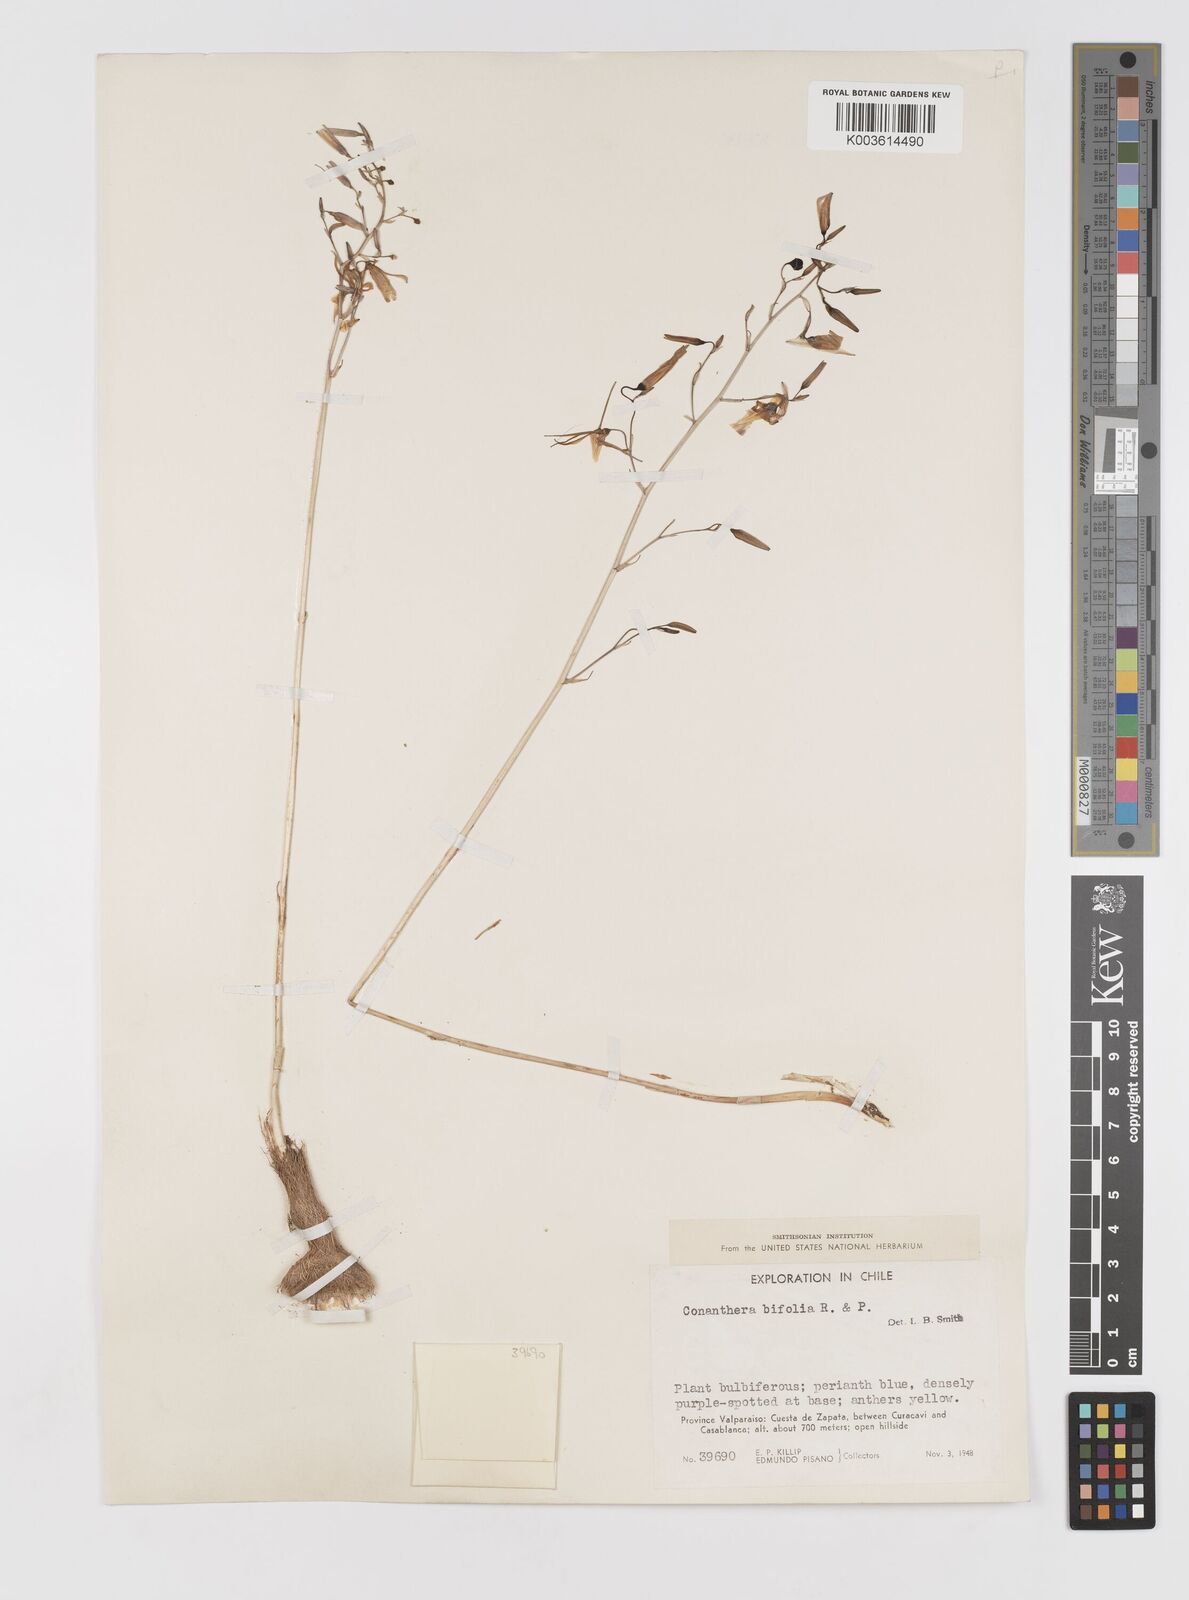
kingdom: Plantae
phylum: Tracheophyta
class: Liliopsida
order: Asparagales
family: Tecophilaeaceae
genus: Conanthera
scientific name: Conanthera bifolia
